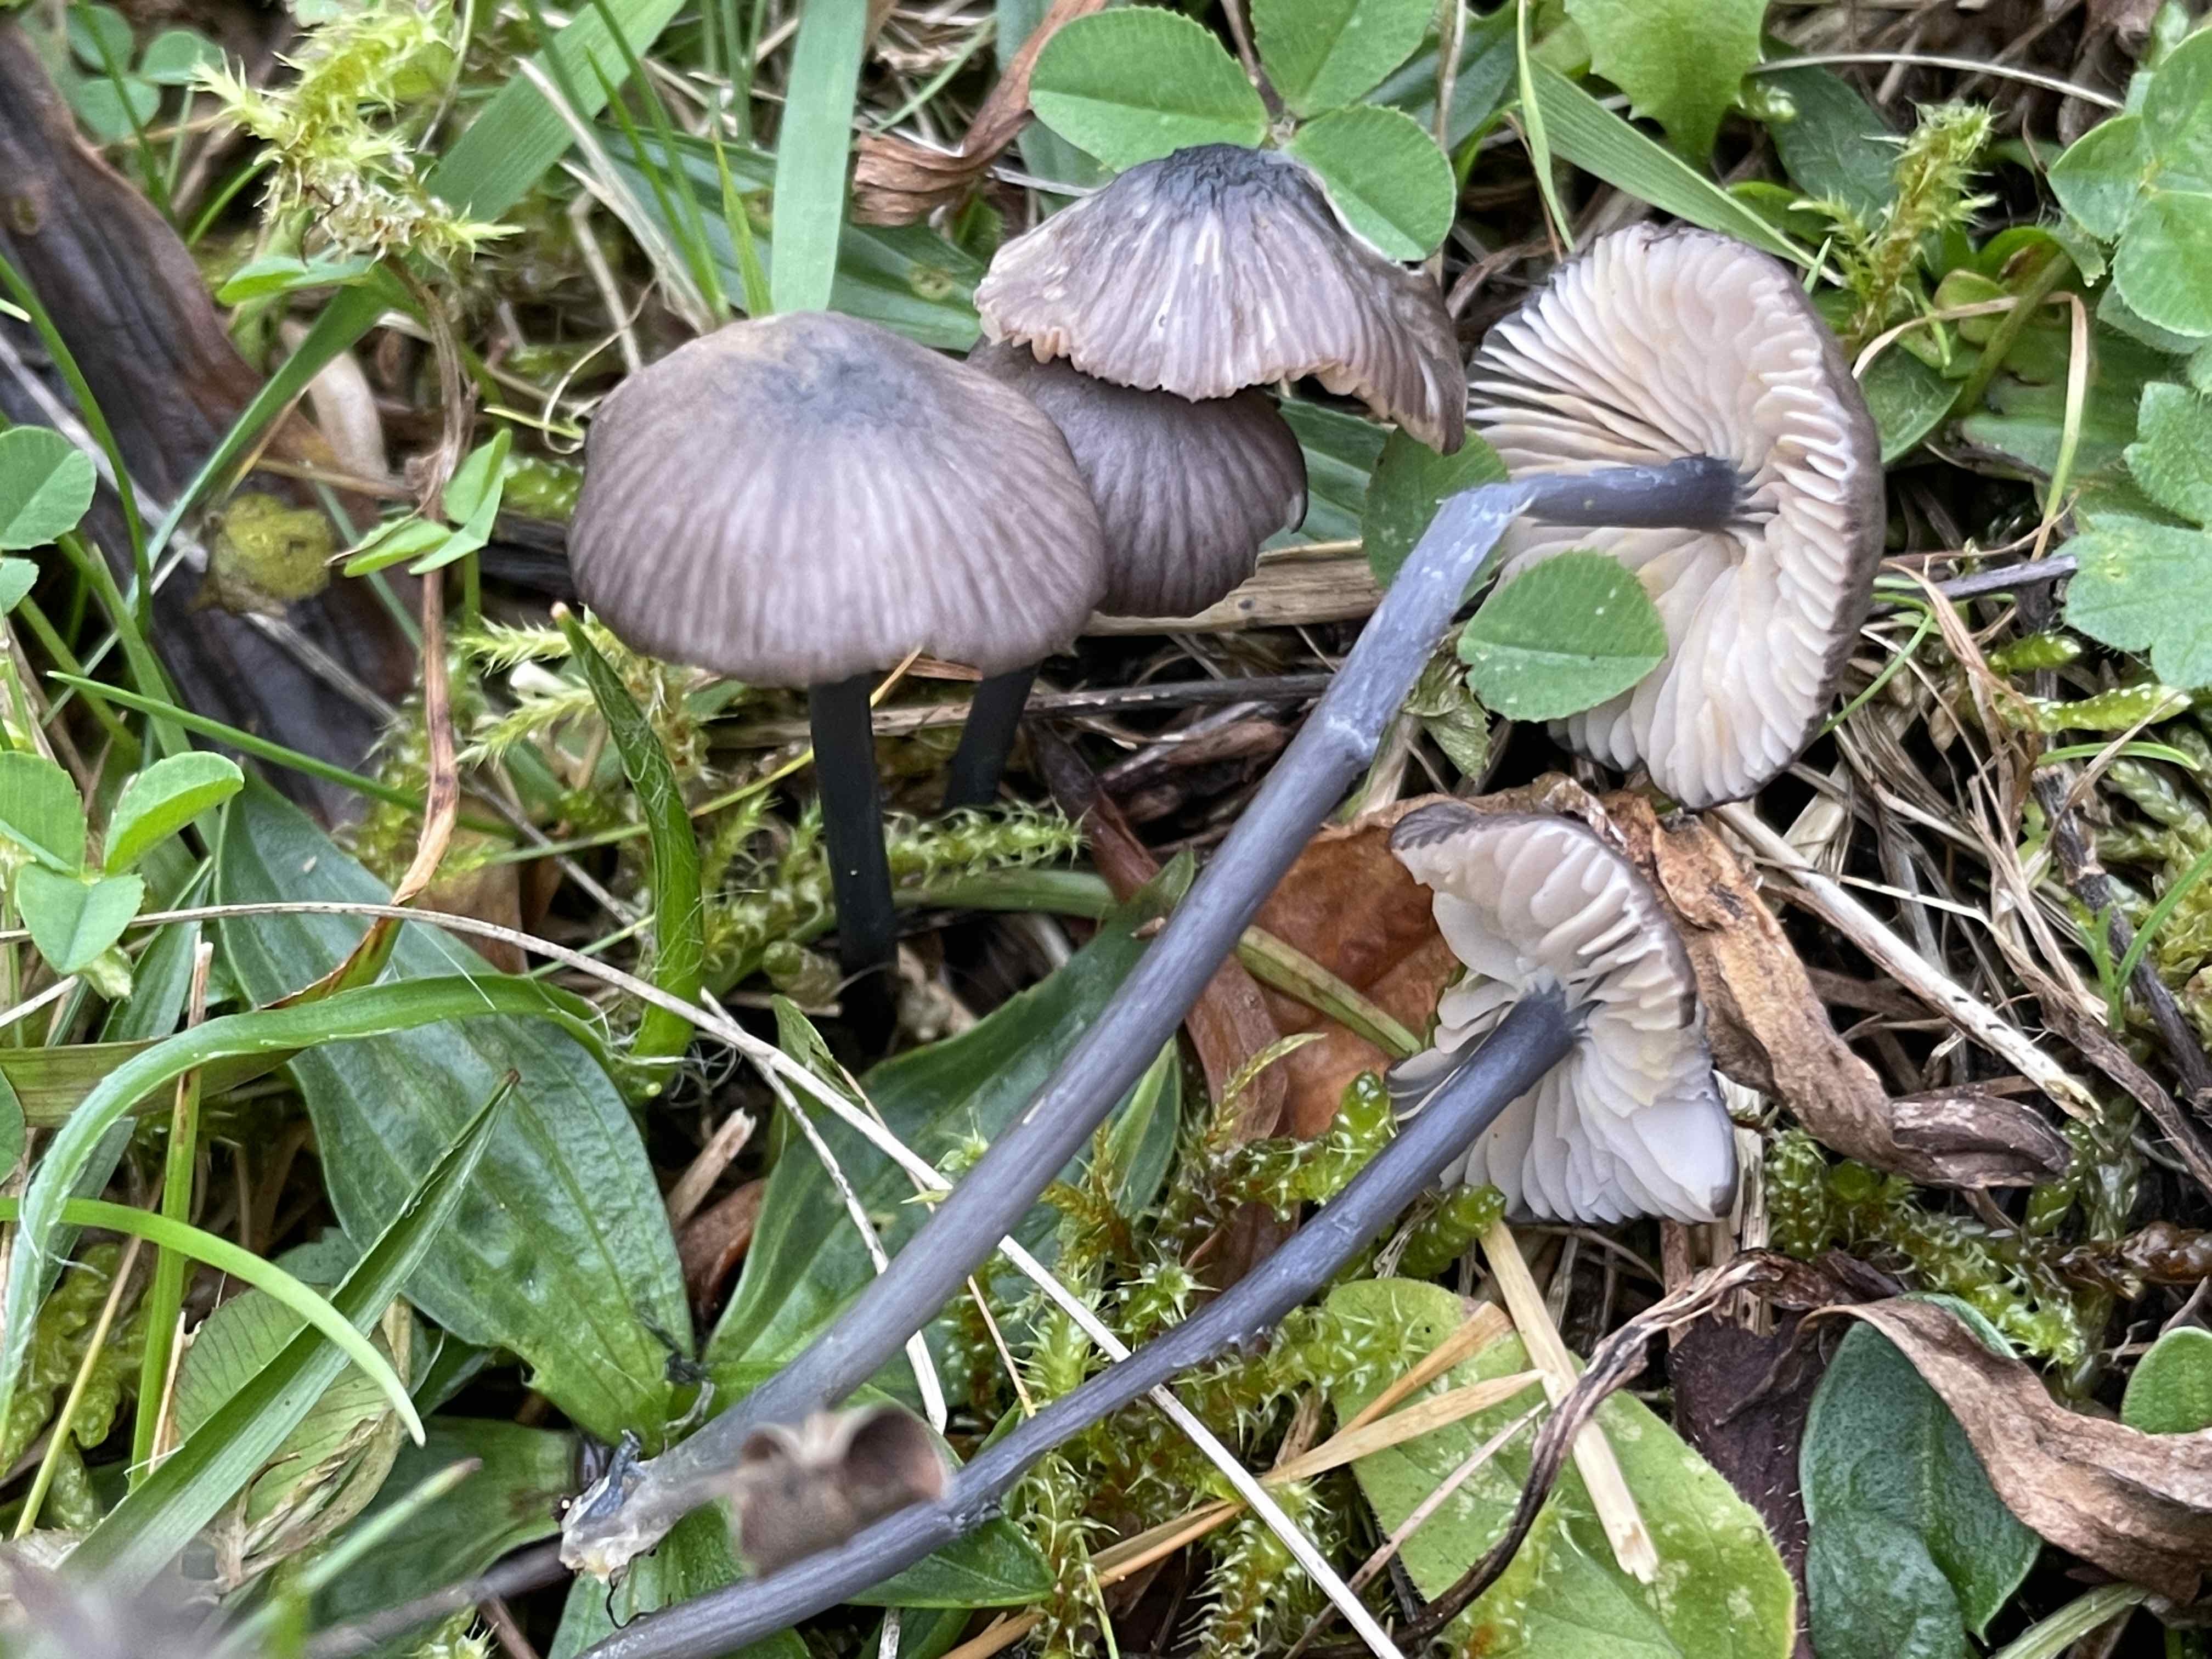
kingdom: Fungi
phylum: Basidiomycota
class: Agaricomycetes
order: Agaricales
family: Entolomataceae
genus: Entoloma
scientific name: Entoloma
